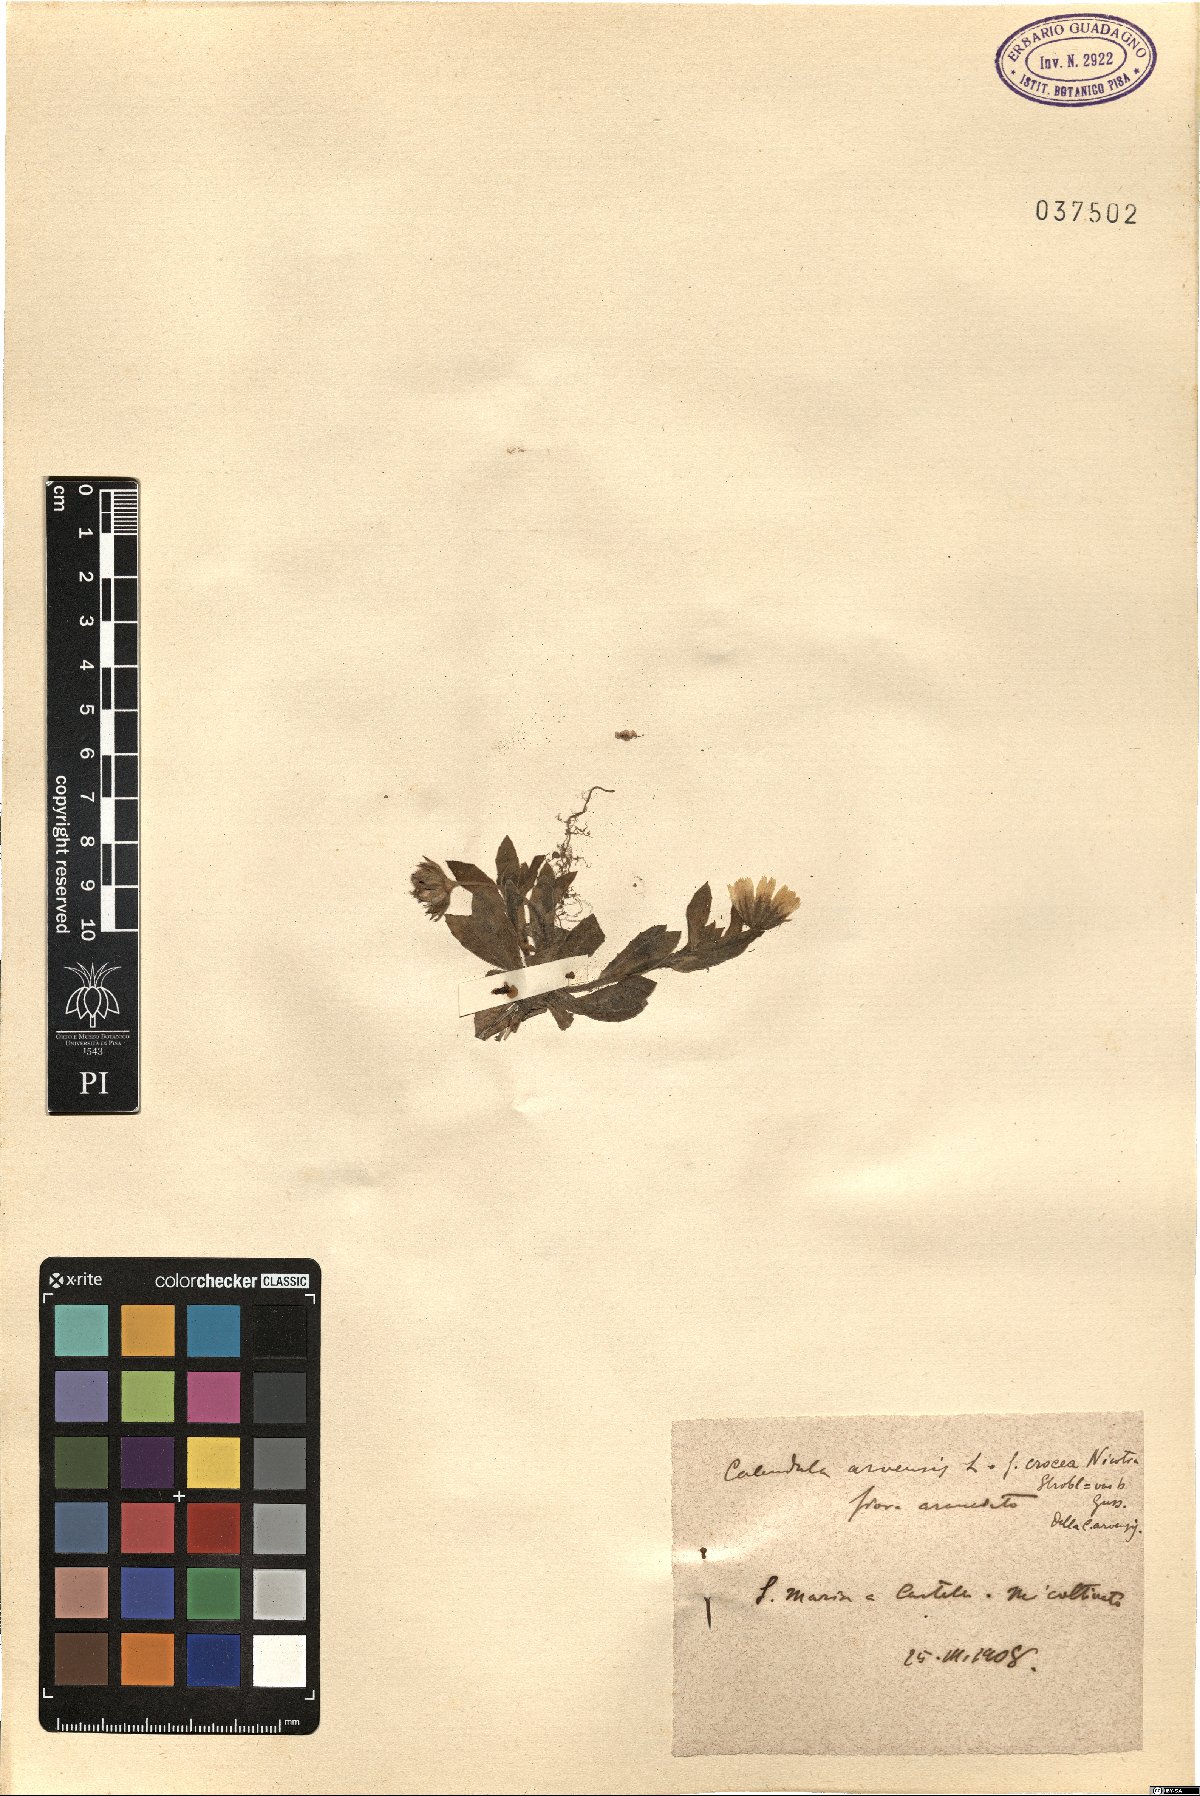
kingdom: Plantae
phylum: Tracheophyta
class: Magnoliopsida
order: Asterales
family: Asteraceae
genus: Calendula
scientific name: Calendula arvensis
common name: Field marigold
